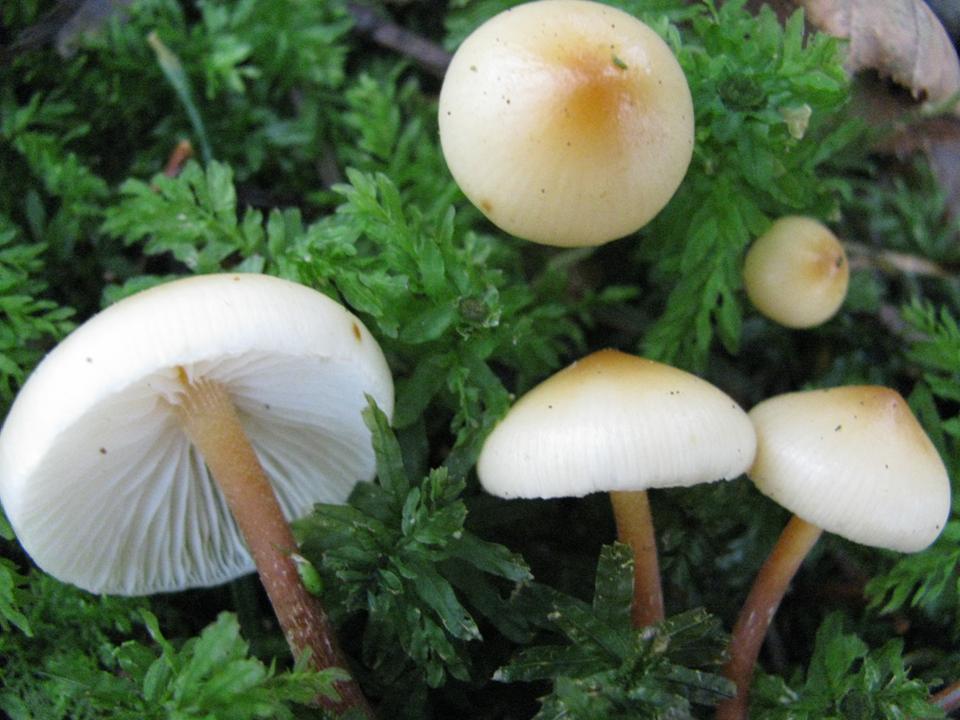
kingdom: Fungi
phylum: Basidiomycota
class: Agaricomycetes
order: Agaricales
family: Hymenogastraceae
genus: Galerina
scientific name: Galerina sideroides
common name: træflis-hjelmhat
